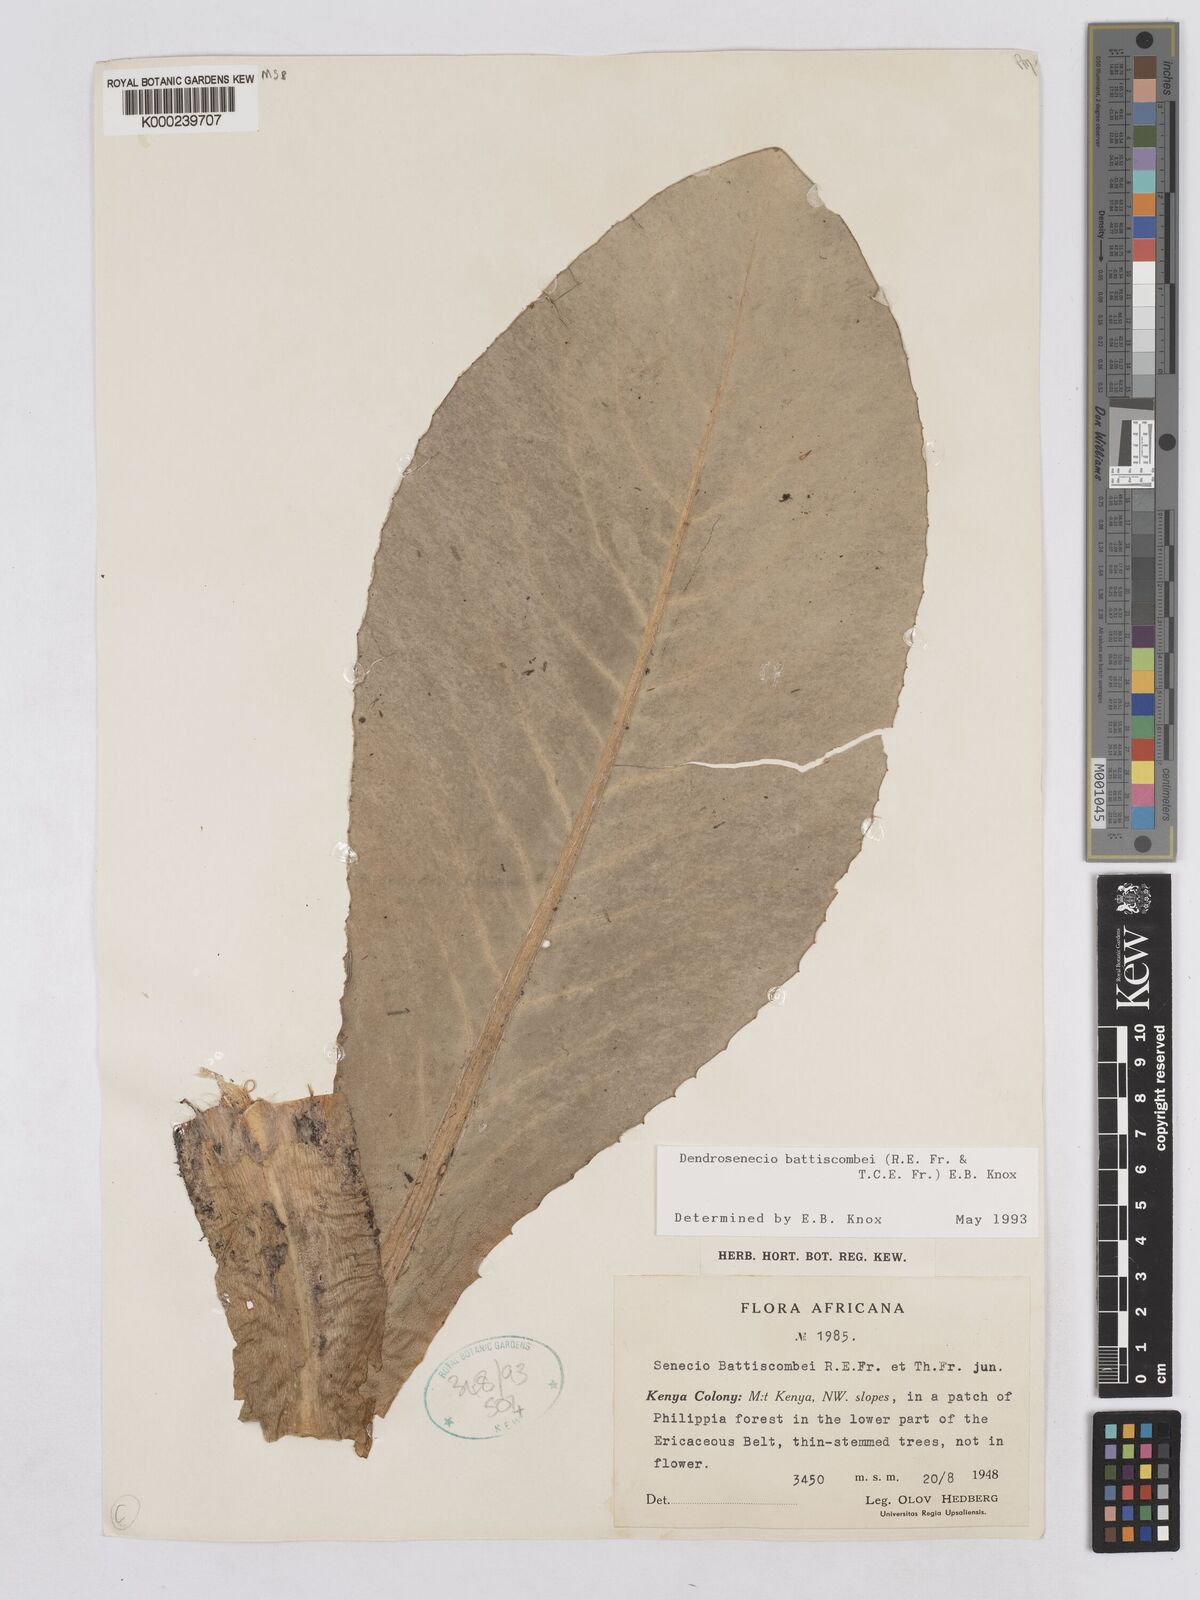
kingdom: Plantae
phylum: Tracheophyta
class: Magnoliopsida
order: Asterales
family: Asteraceae
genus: Dendrosenecio
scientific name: Dendrosenecio battiscombei
